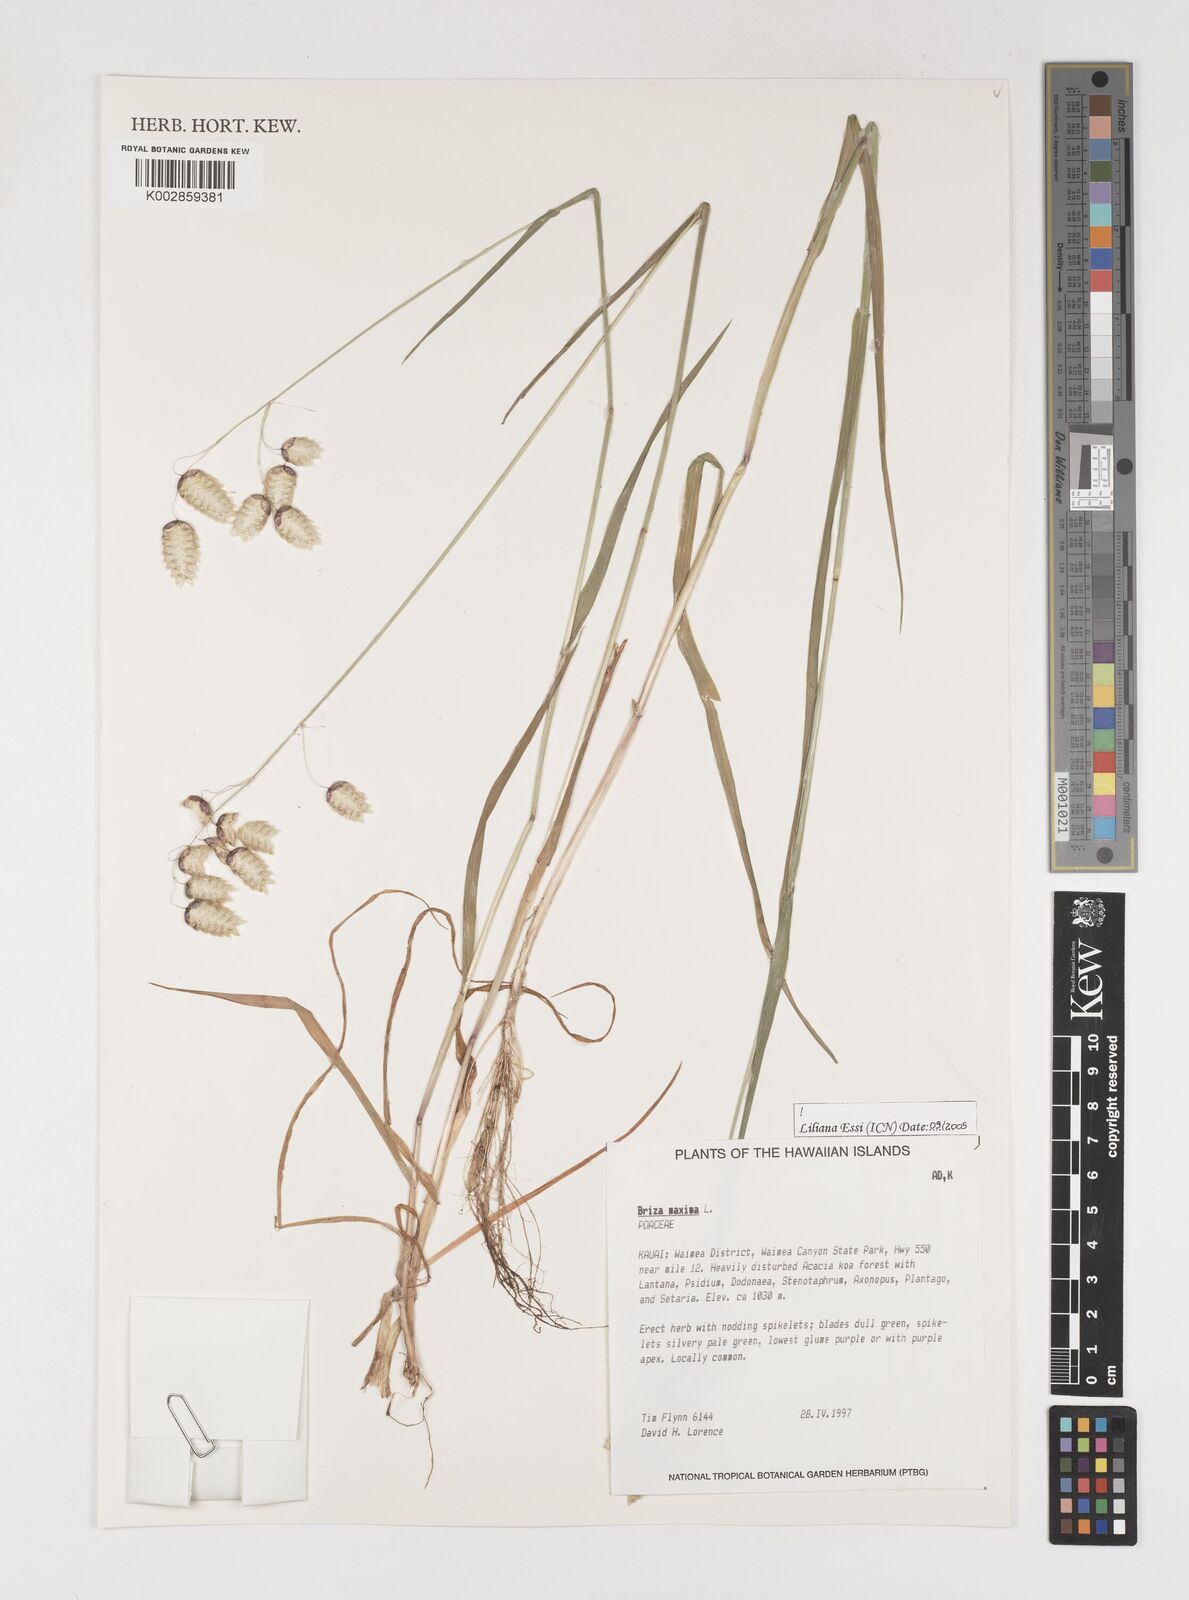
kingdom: Plantae
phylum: Tracheophyta
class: Liliopsida
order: Poales
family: Poaceae
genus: Briza
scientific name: Briza maxima
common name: Big quakinggrass
